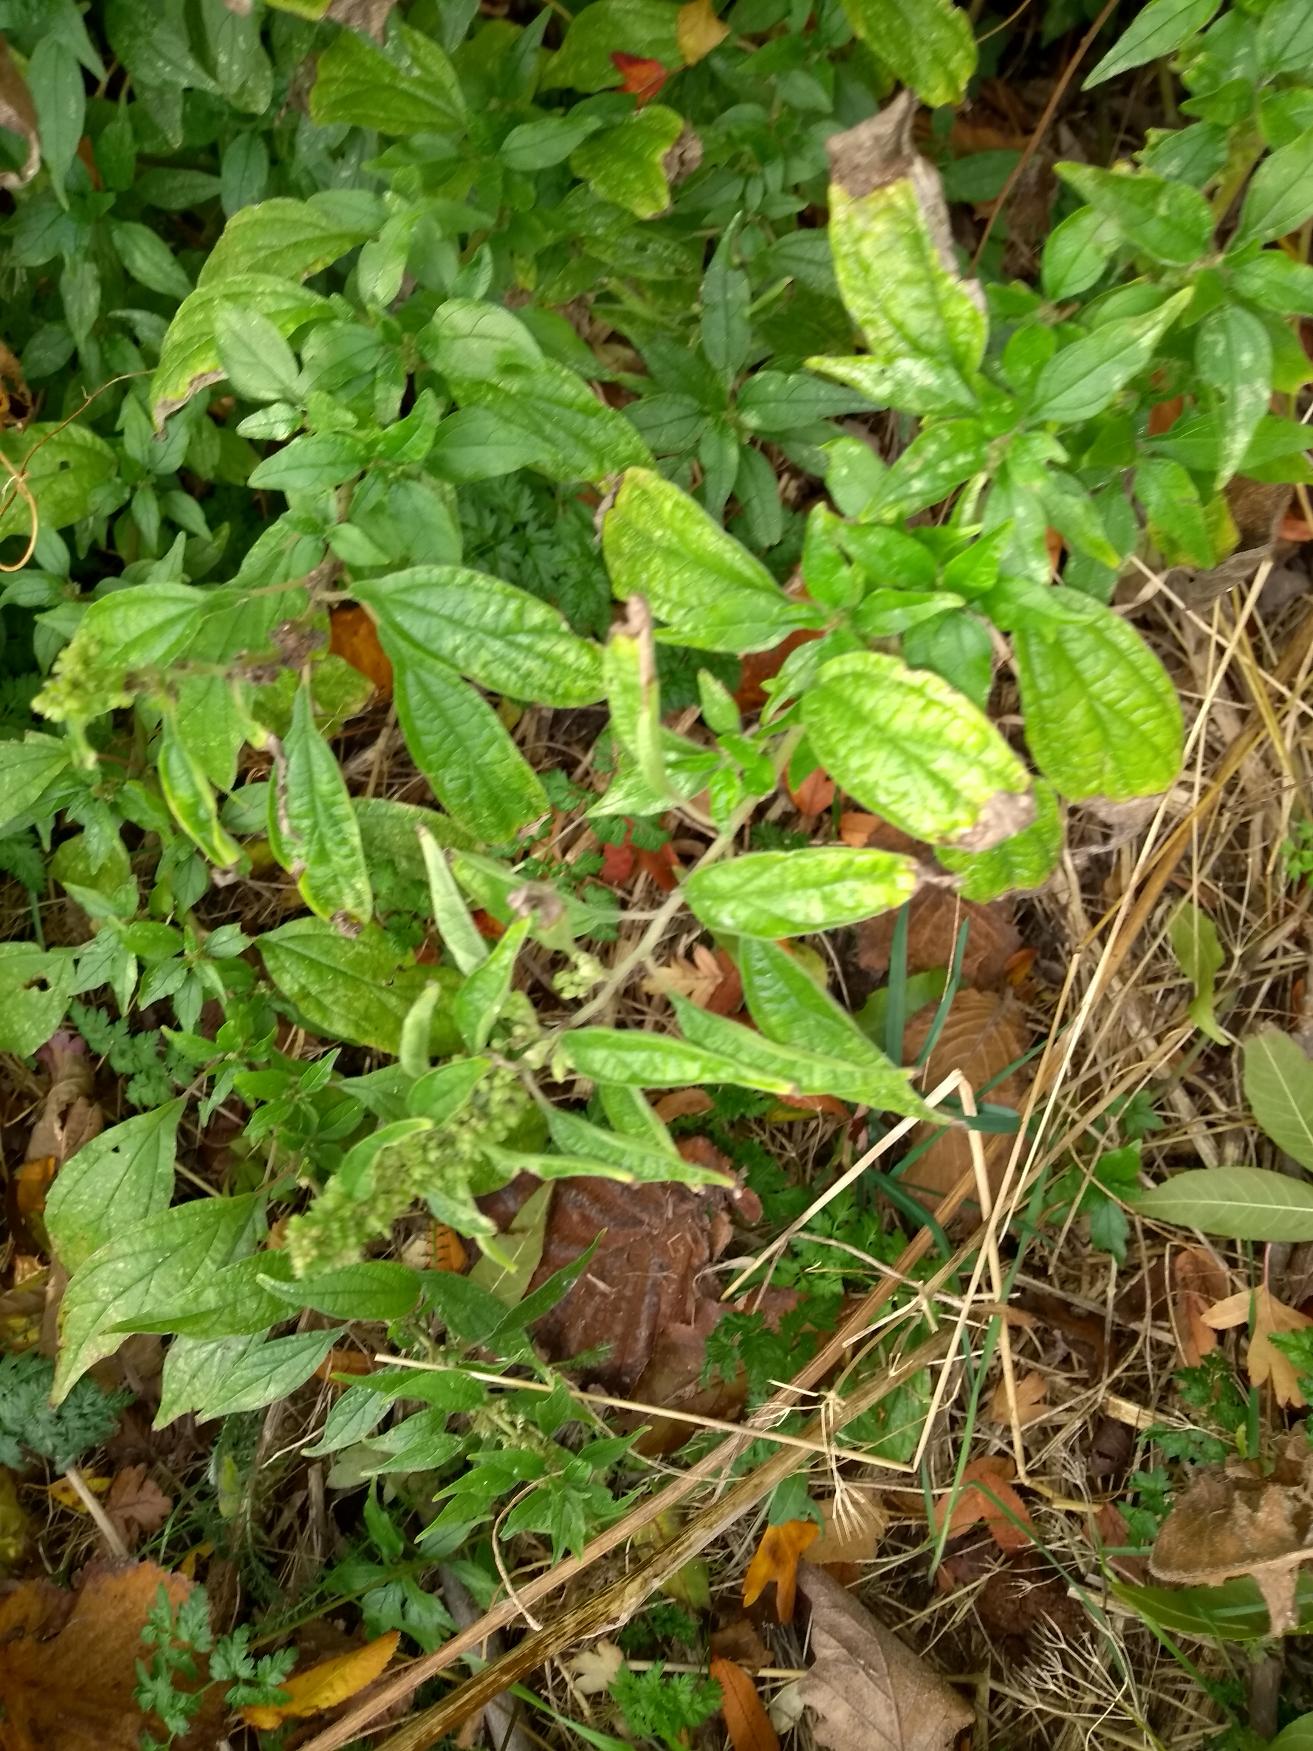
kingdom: Plantae
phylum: Tracheophyta
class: Magnoliopsida
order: Rosales
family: Urticaceae
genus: Parietaria
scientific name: Parietaria officinalis
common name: Almindelig springknap
